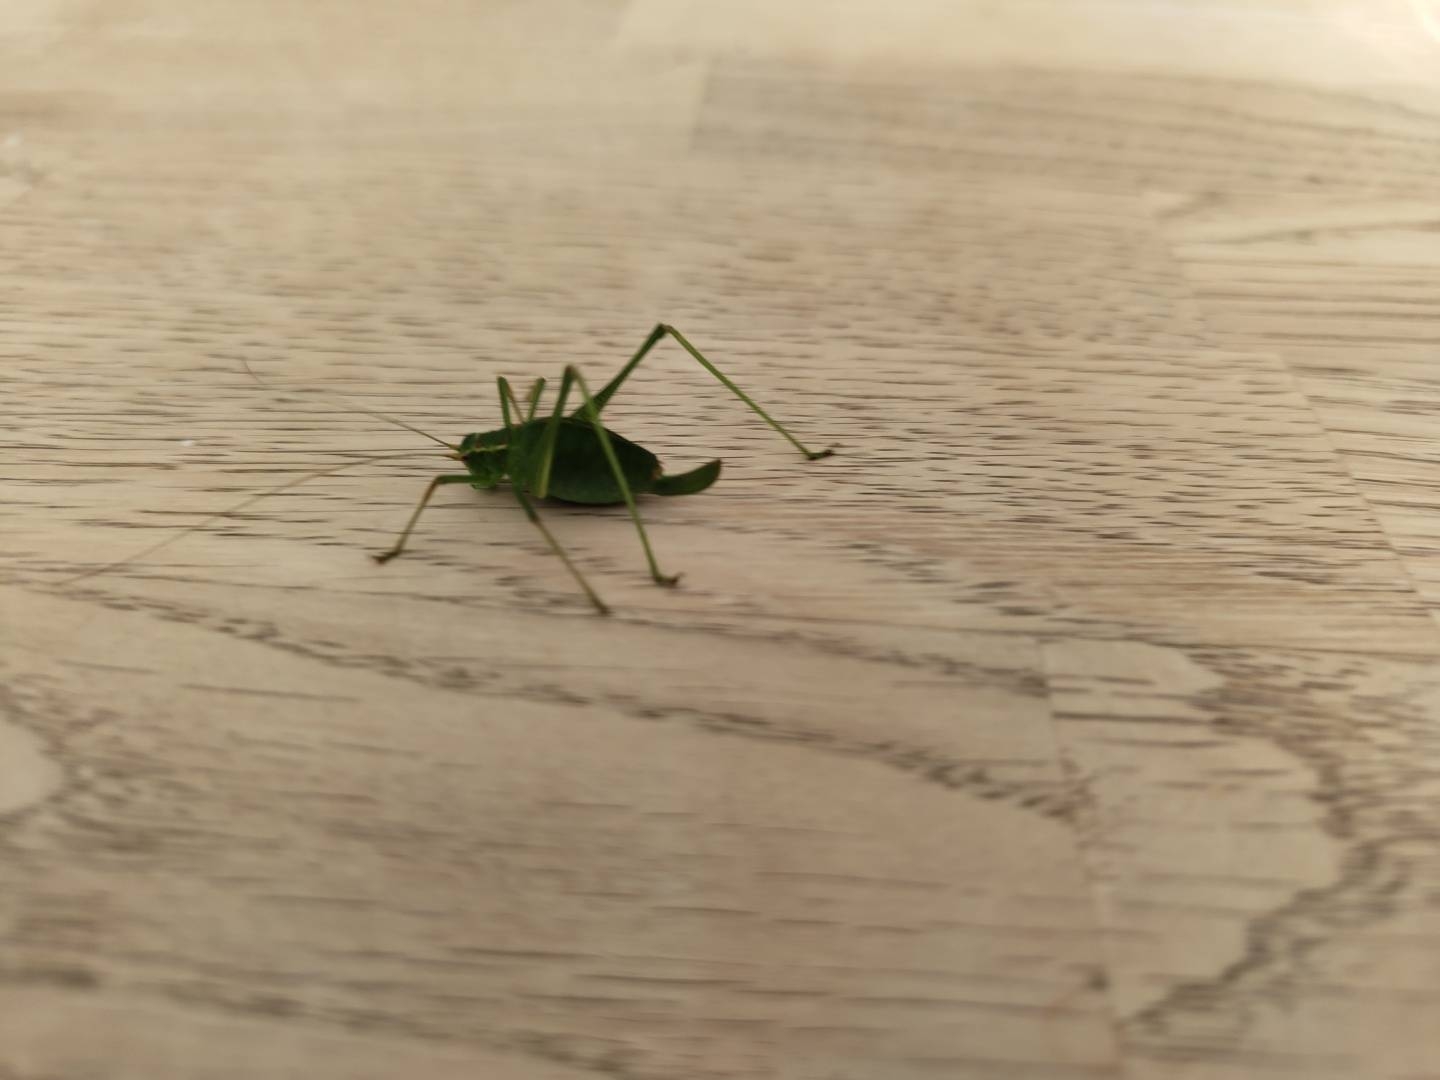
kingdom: Animalia
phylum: Arthropoda
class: Insecta
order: Orthoptera
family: Tettigoniidae
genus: Leptophyes
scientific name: Leptophyes punctatissima
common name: Krumknivgræshoppe
